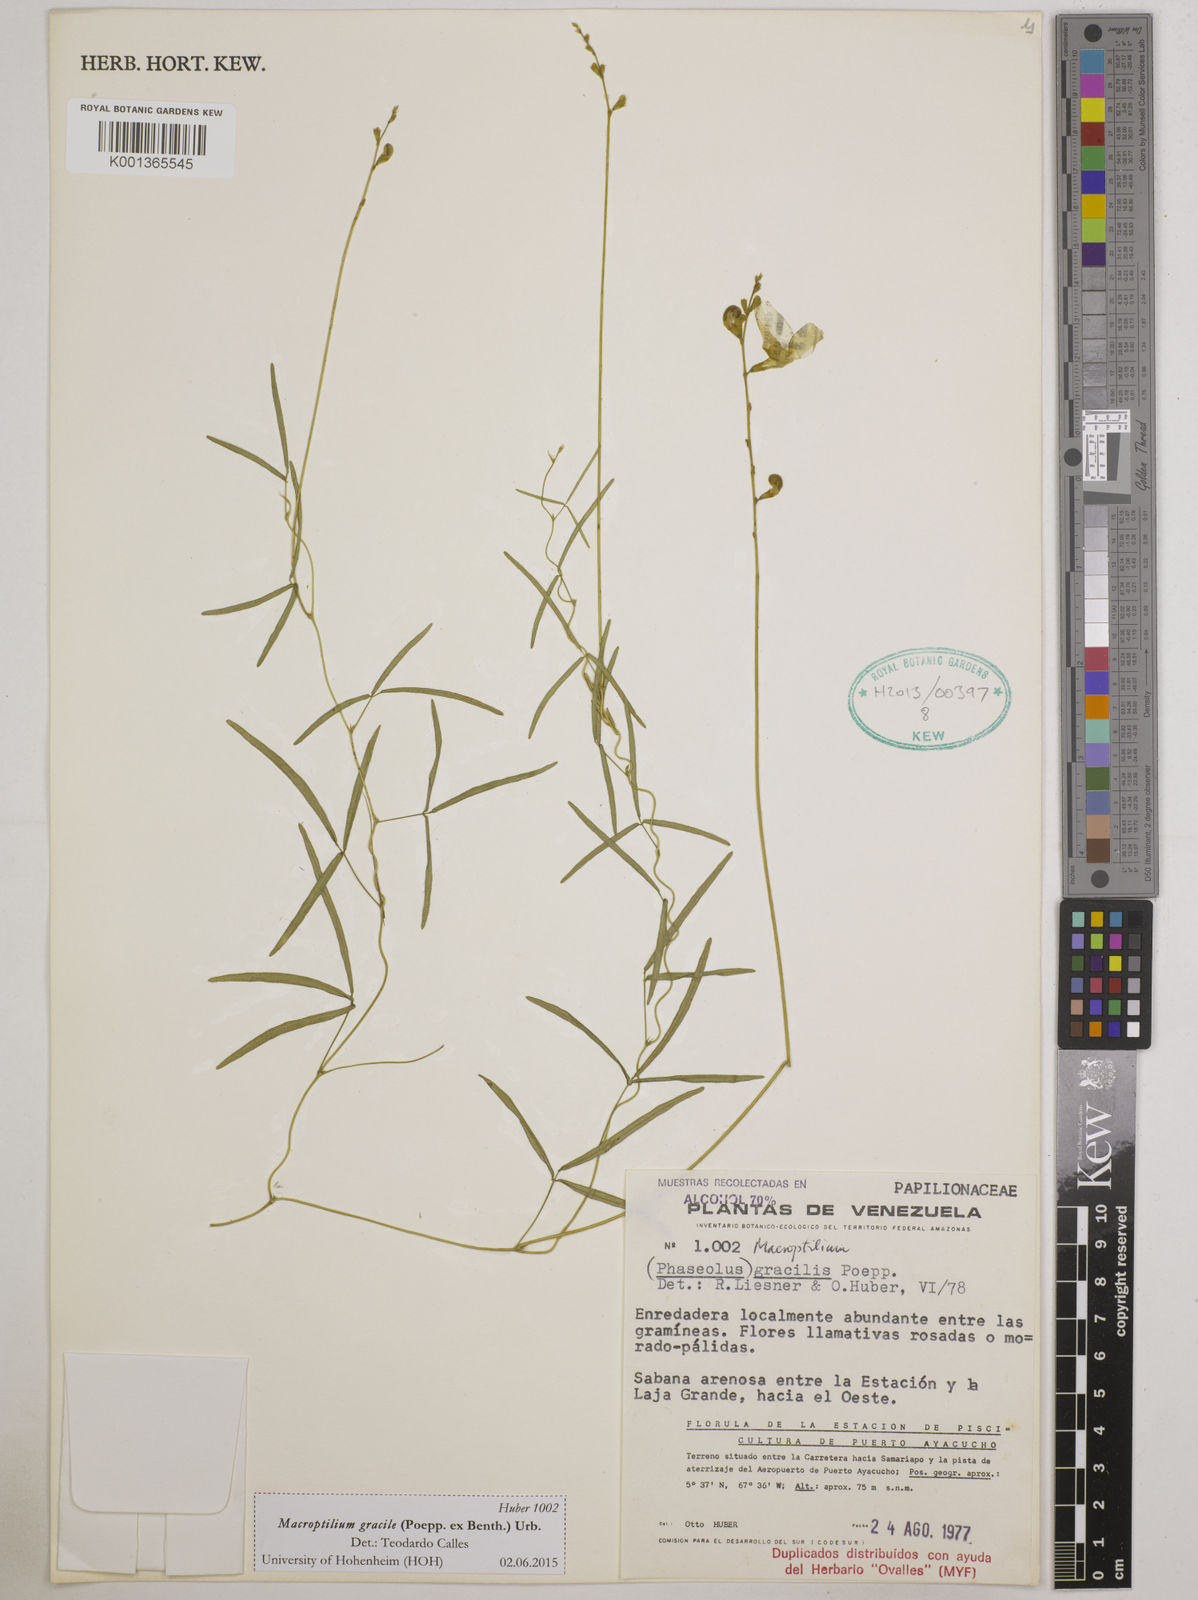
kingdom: Plantae
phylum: Tracheophyta
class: Magnoliopsida
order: Fabales
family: Fabaceae
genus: Macroptilium
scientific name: Macroptilium gracile
